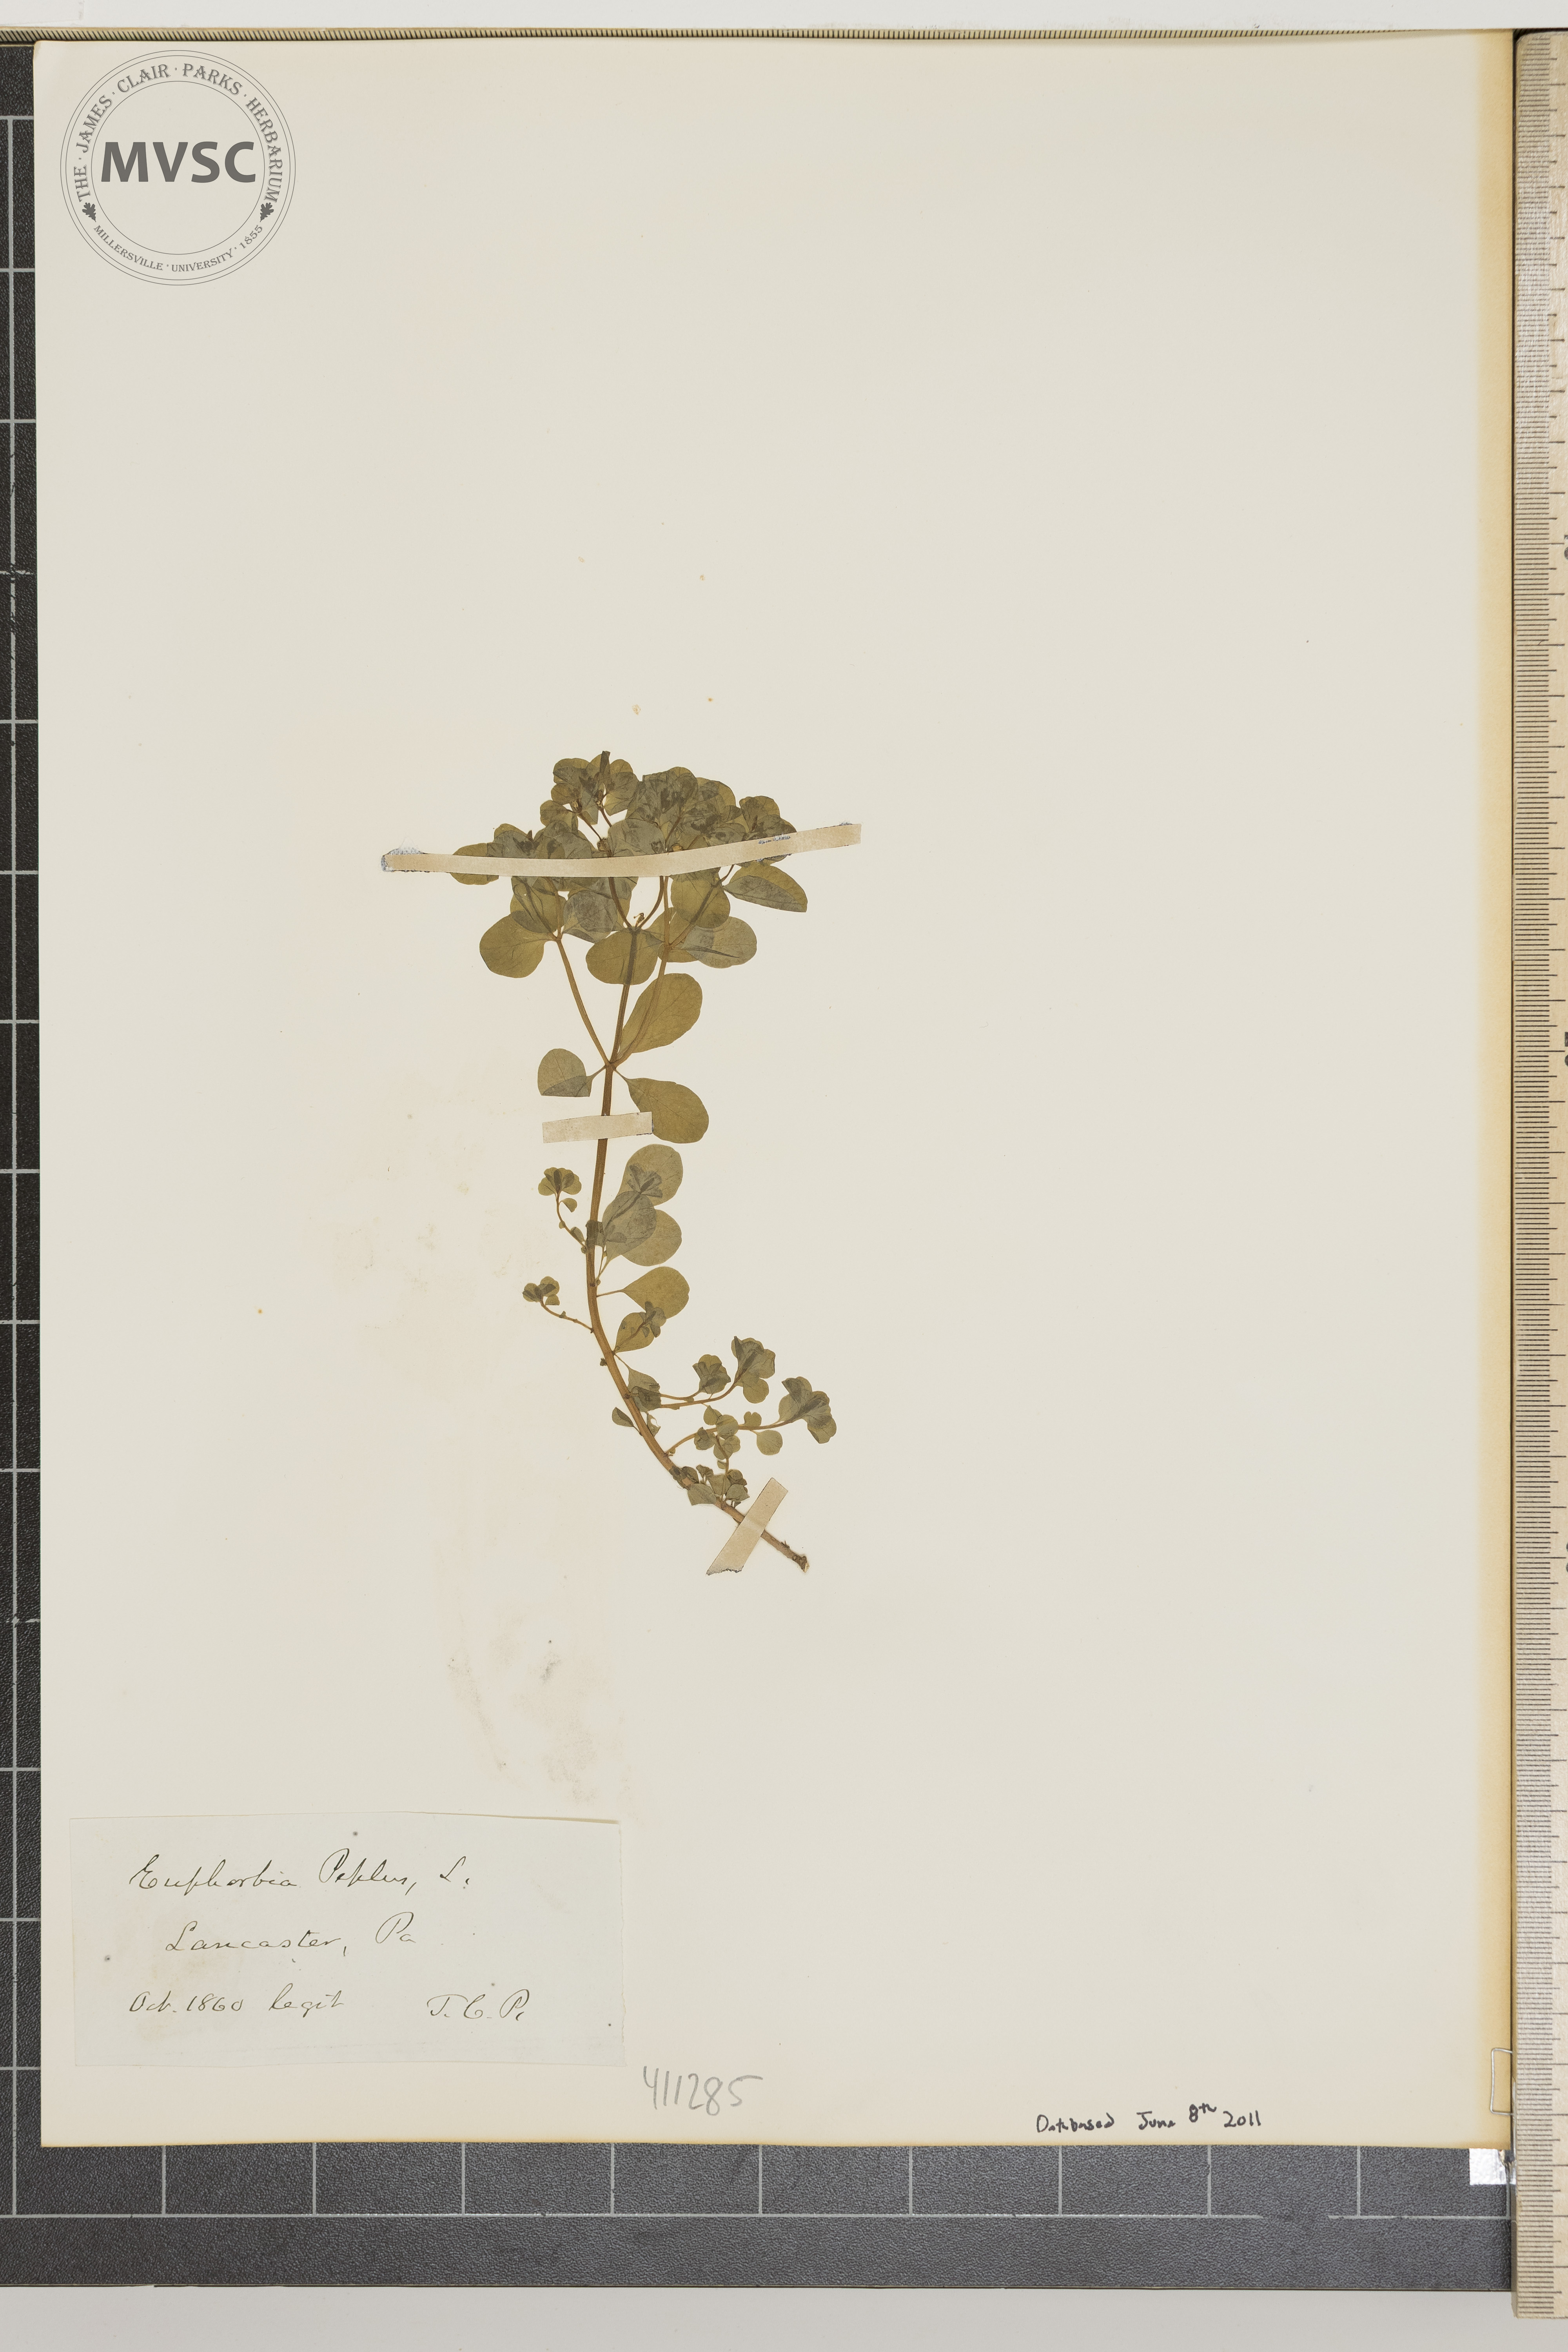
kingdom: Plantae
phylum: Tracheophyta
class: Magnoliopsida
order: Malpighiales
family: Euphorbiaceae
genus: Euphorbia
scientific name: Euphorbia peplus
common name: Petty spurge
